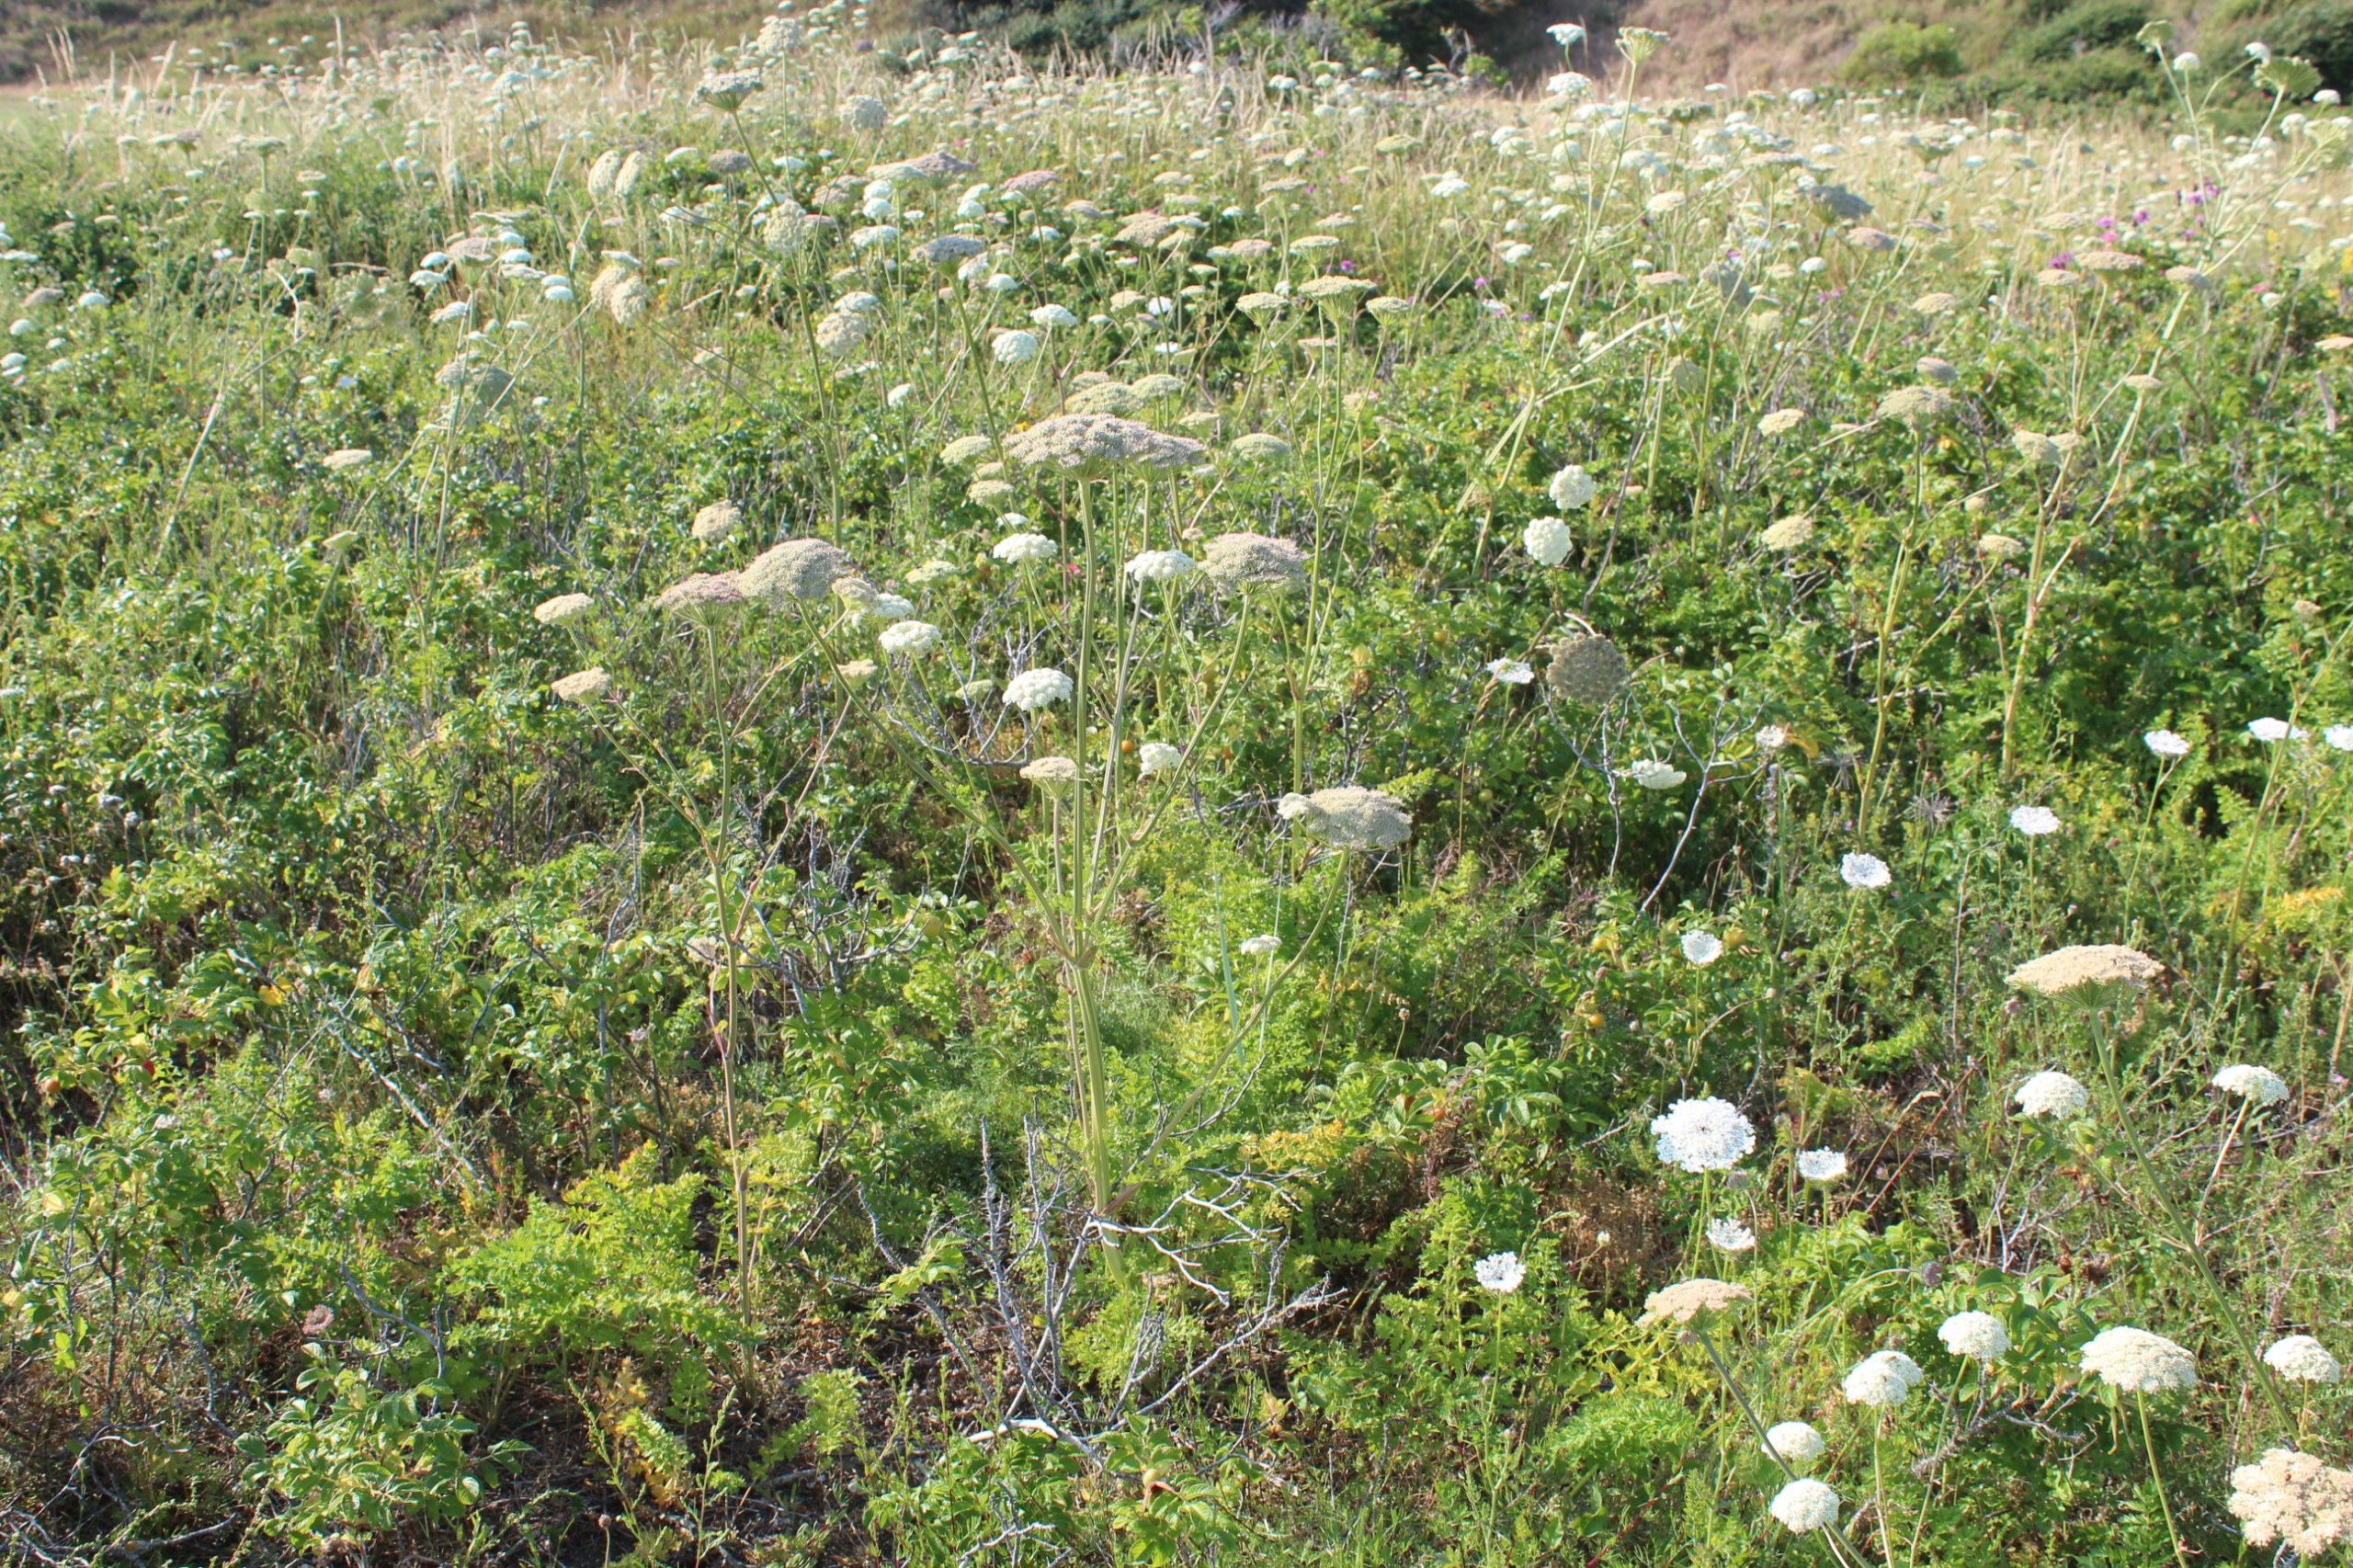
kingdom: Plantae
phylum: Tracheophyta
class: Magnoliopsida
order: Apiales
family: Apiaceae
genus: Seseli
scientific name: Seseli libanotis
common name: Hjorterod
